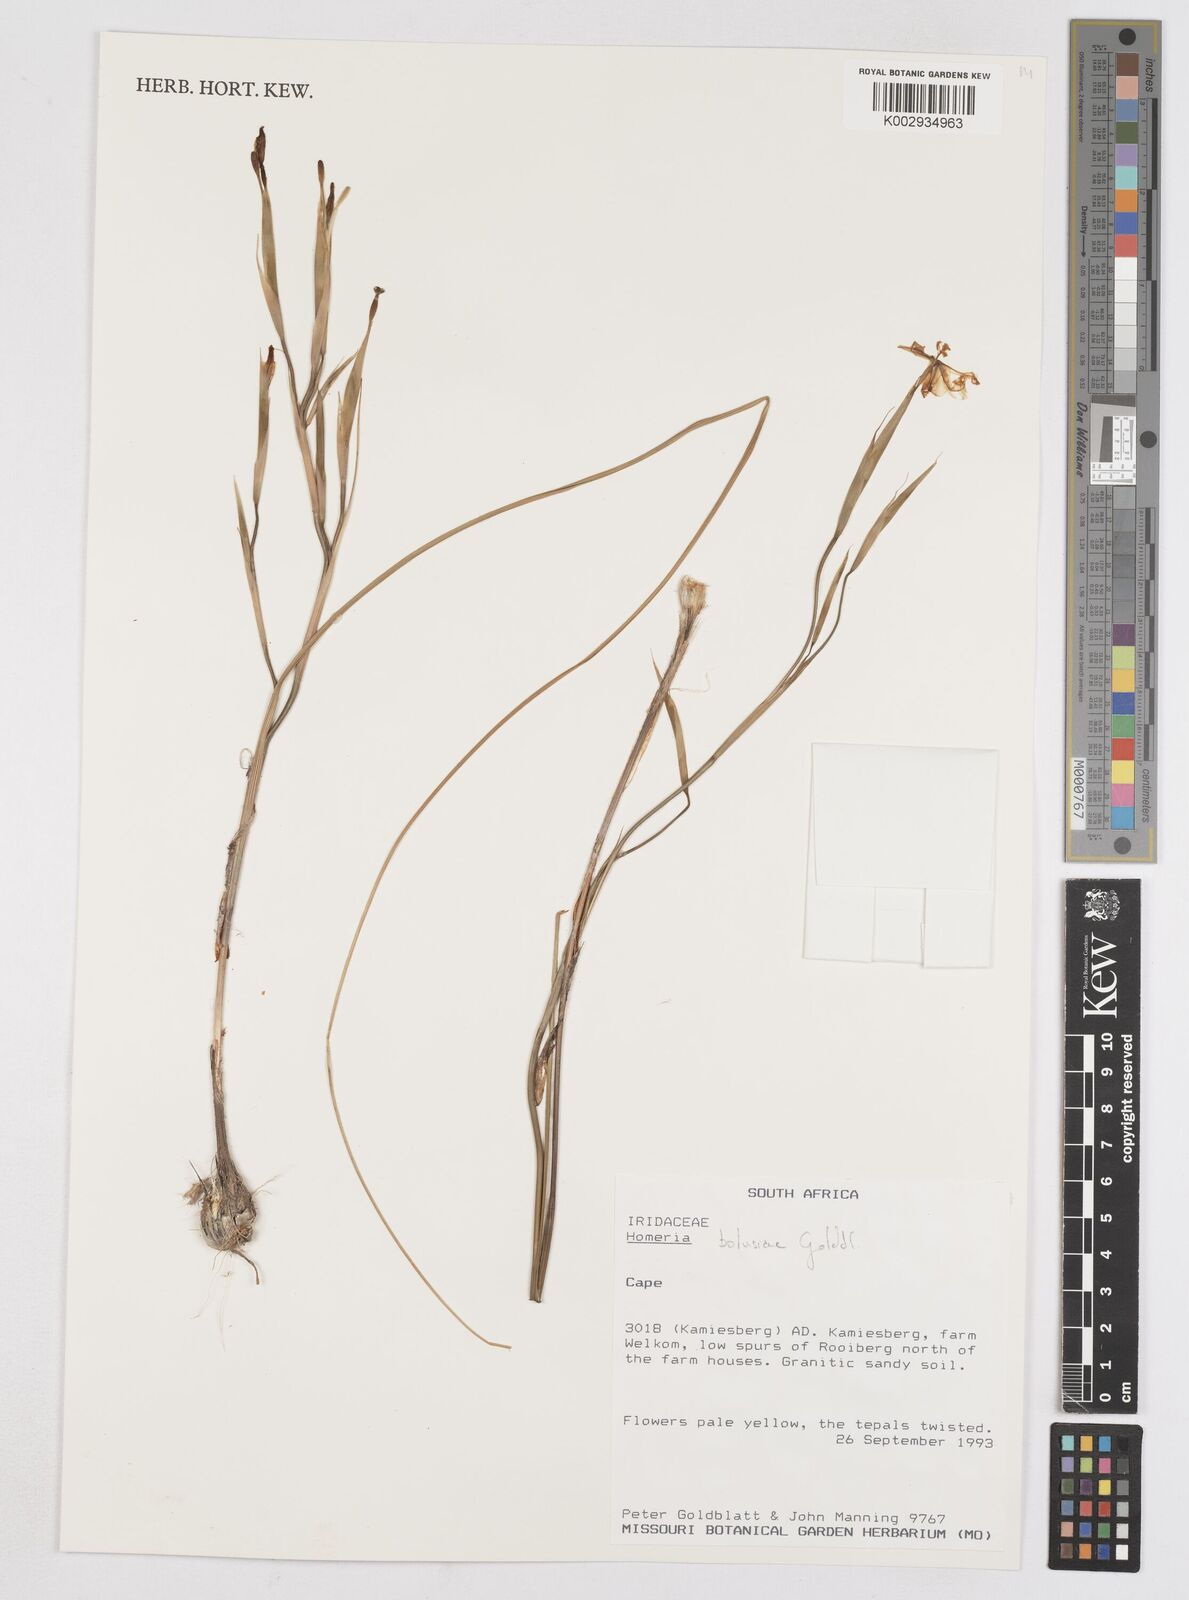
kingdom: Plantae
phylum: Tracheophyta
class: Liliopsida
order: Asparagales
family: Iridaceae
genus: Moraea
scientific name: Moraea bolusii
